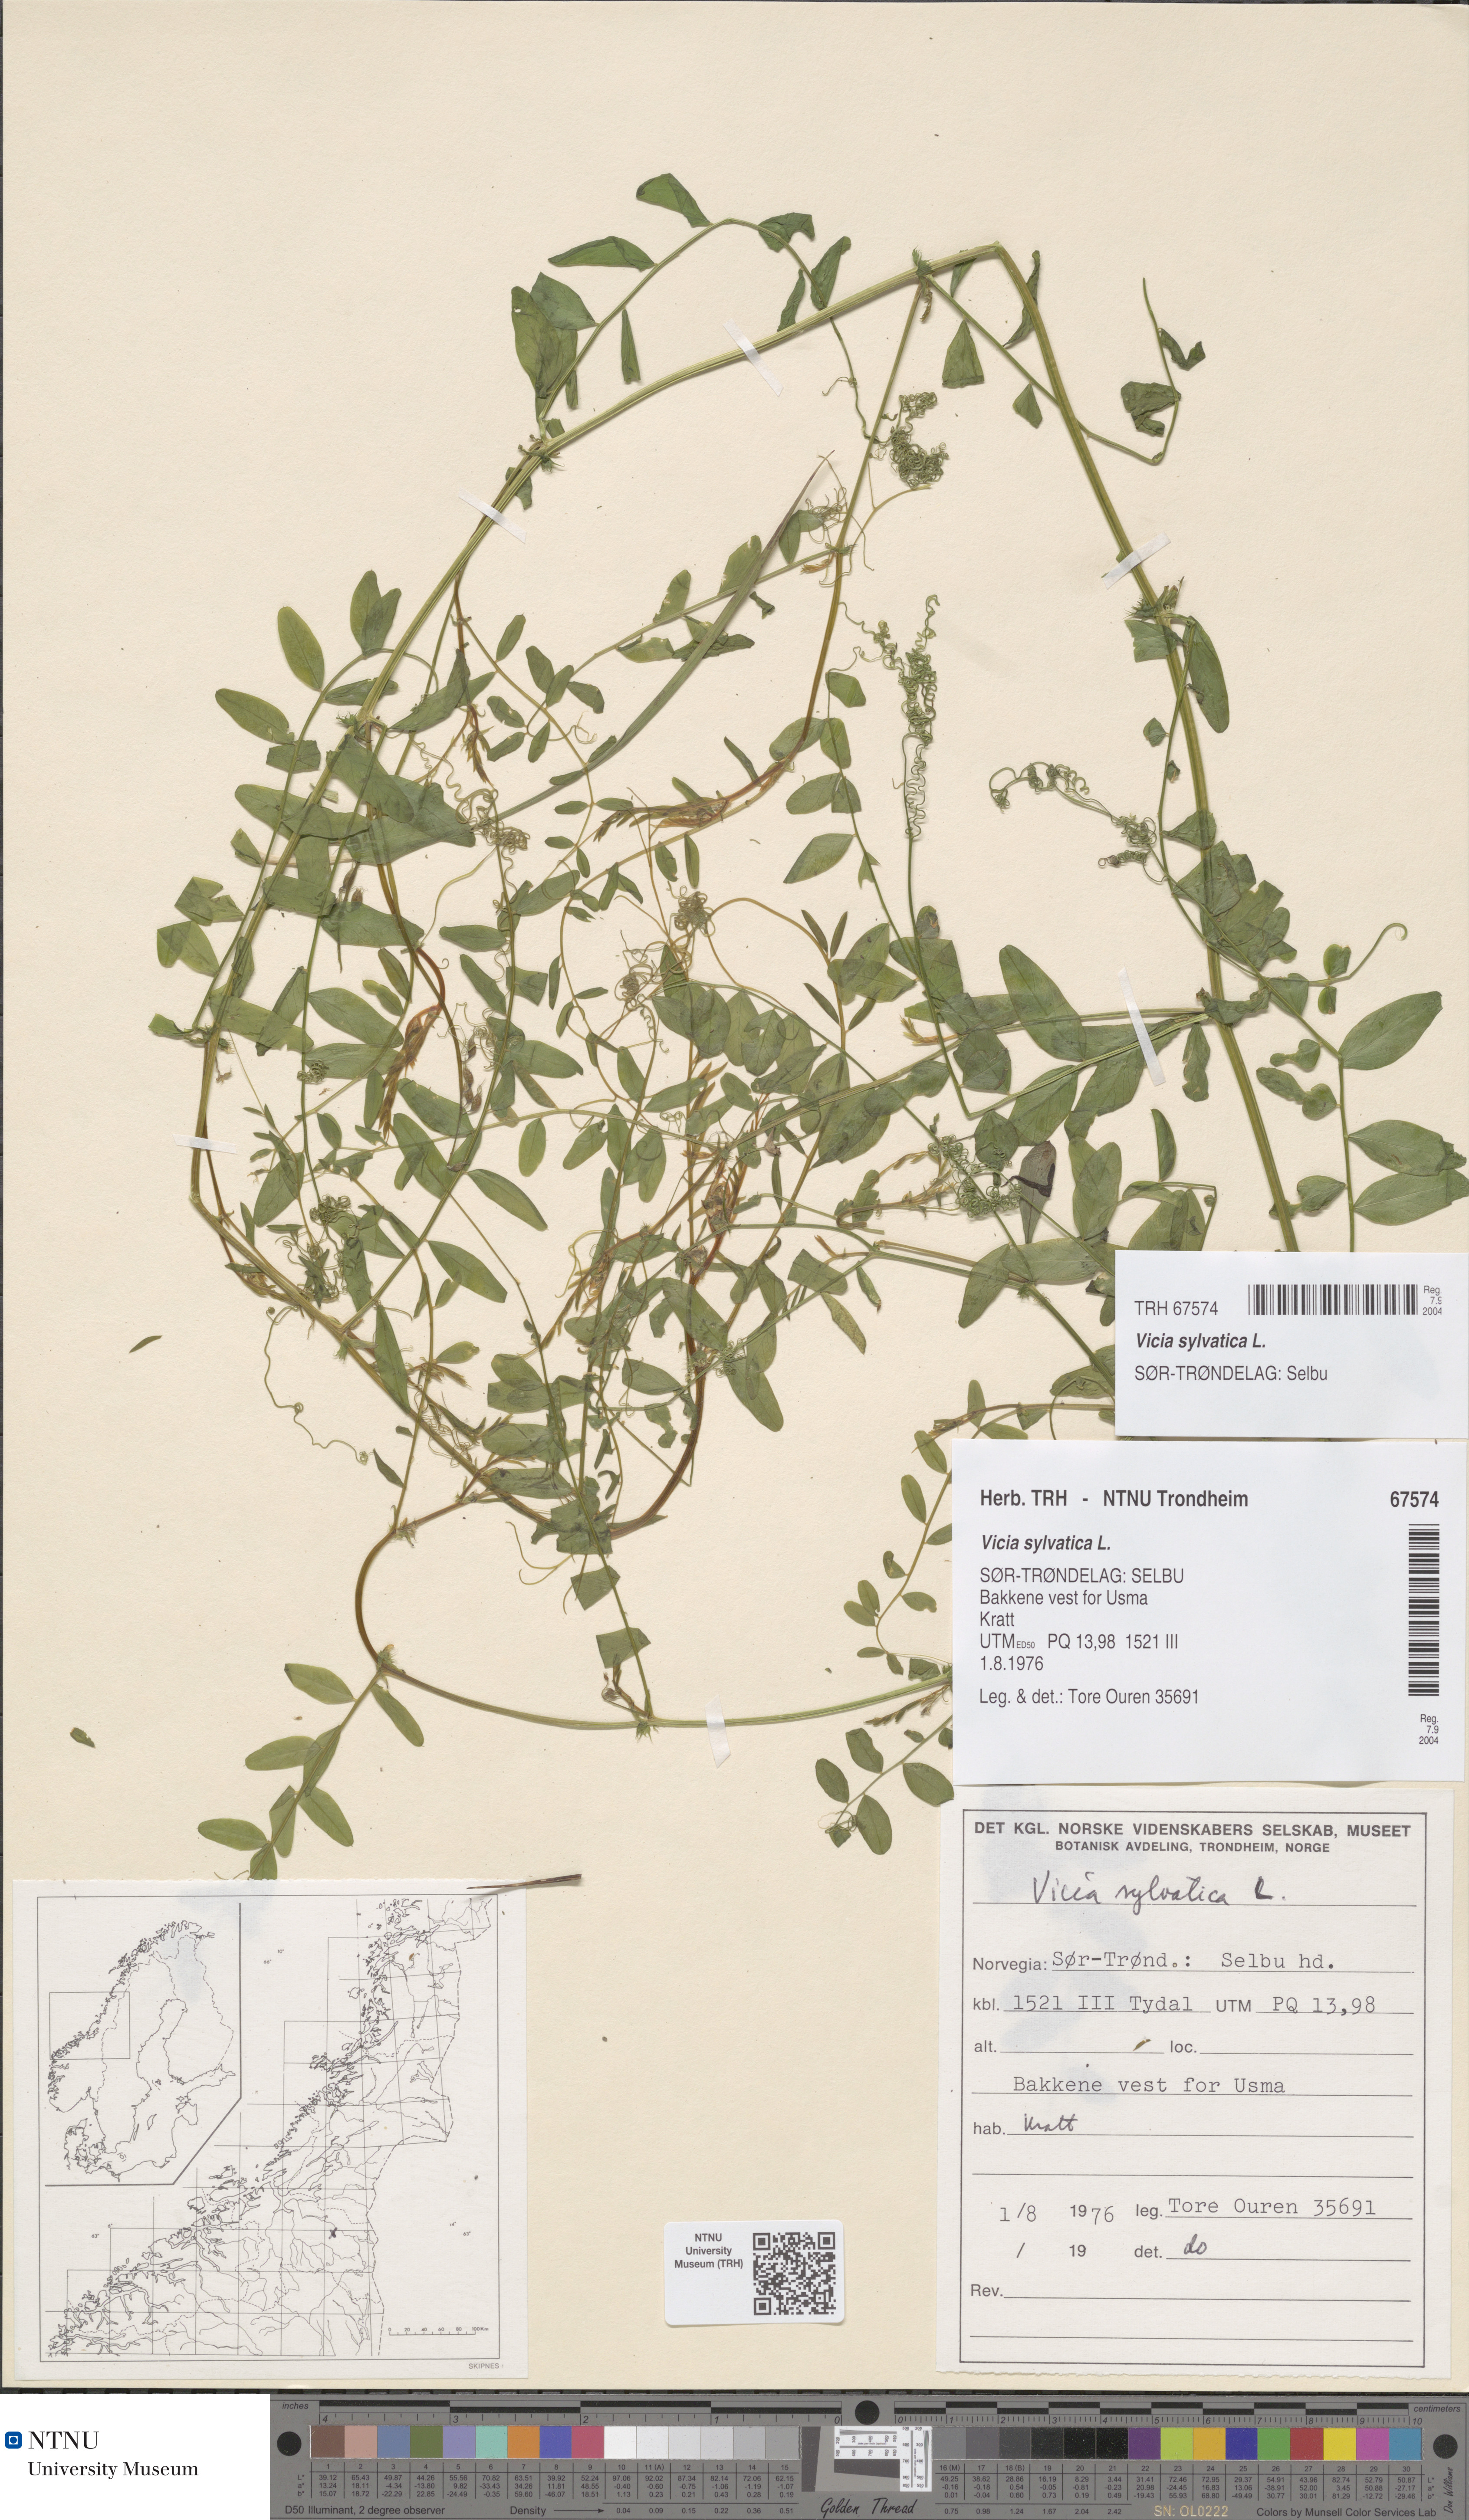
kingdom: Plantae
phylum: Tracheophyta
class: Magnoliopsida
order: Fabales
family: Fabaceae
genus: Vicia
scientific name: Vicia sylvatica
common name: Wood vetch
